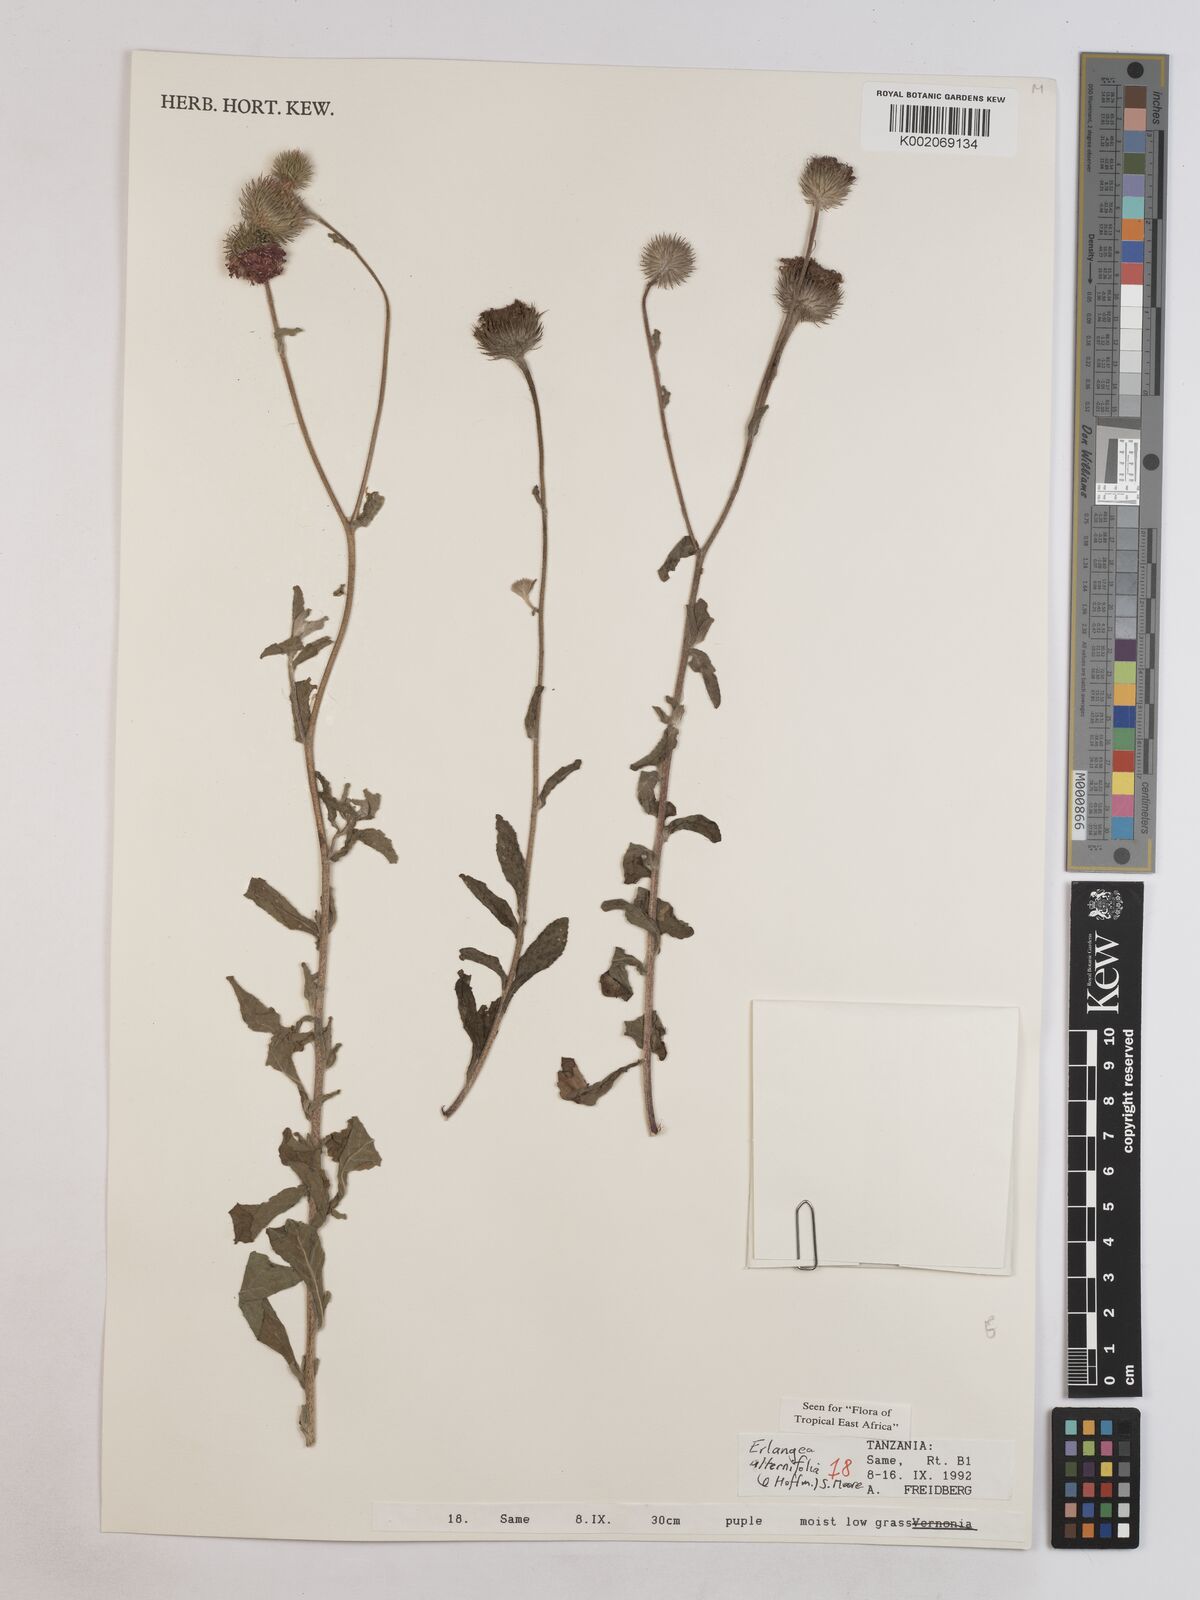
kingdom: Plantae
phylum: Tracheophyta
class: Magnoliopsida
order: Asterales
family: Asteraceae
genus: Erlangea
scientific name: Erlangea alternifolia
